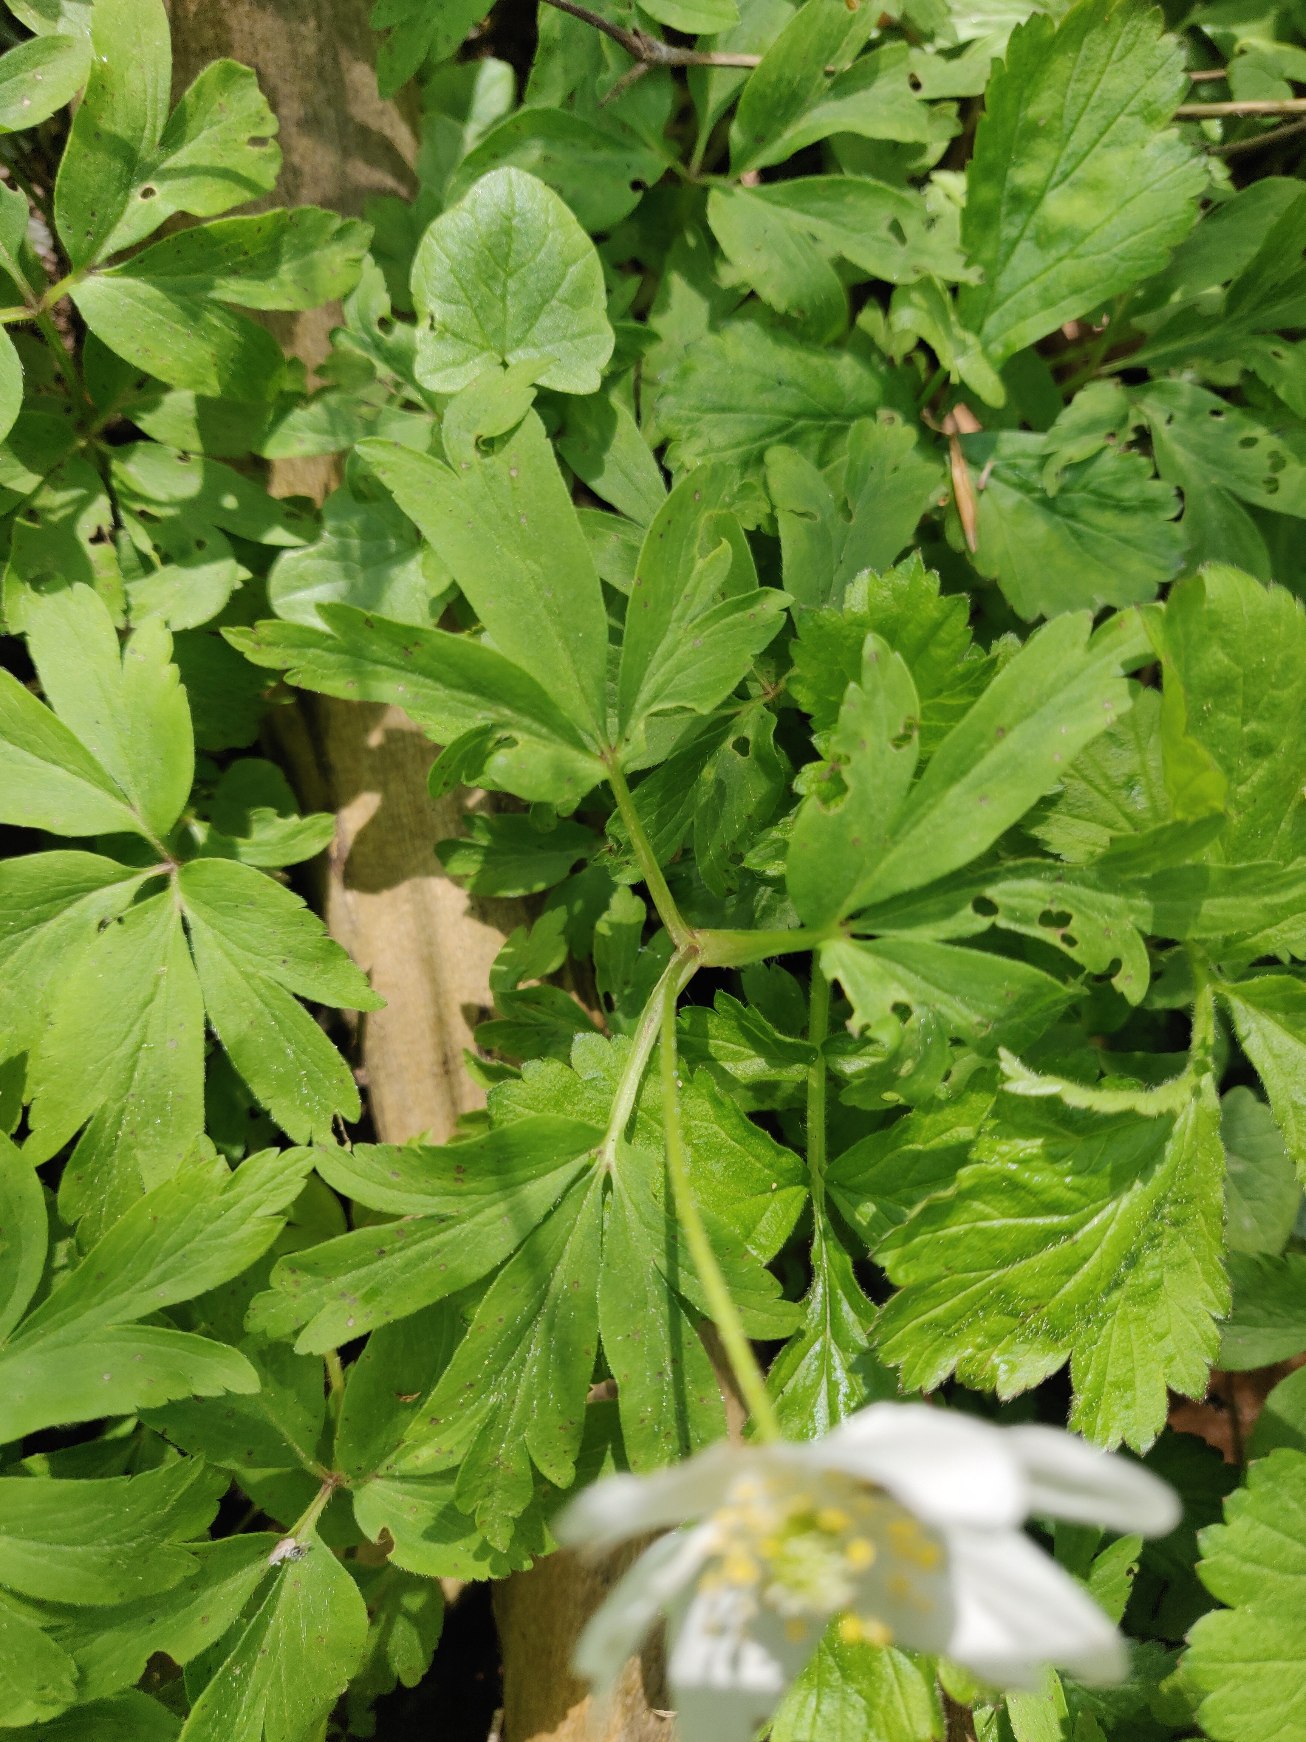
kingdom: Plantae
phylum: Tracheophyta
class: Magnoliopsida
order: Ranunculales
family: Ranunculaceae
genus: Anemone
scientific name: Anemone nemorosa
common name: Hvid anemone
